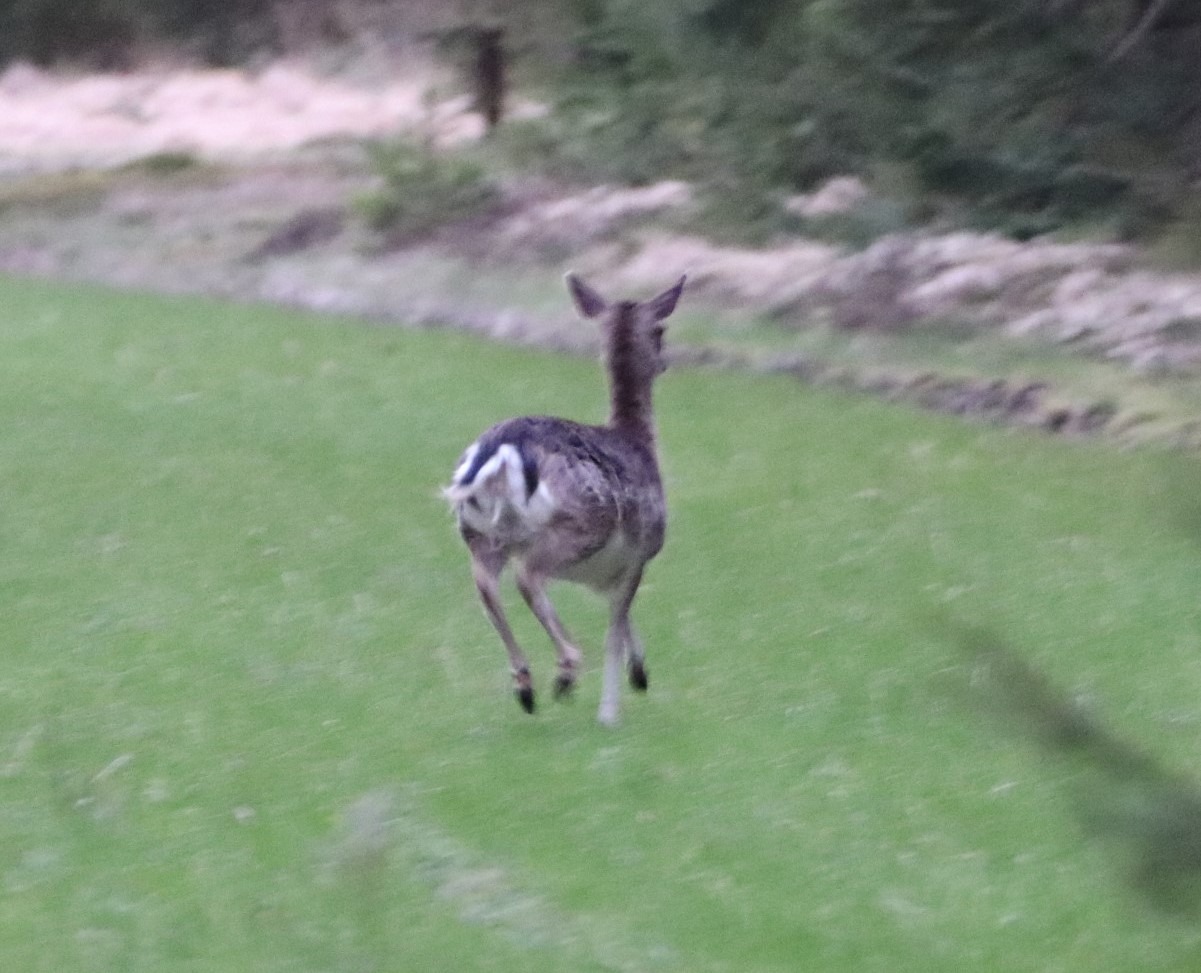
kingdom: Animalia
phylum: Chordata
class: Mammalia
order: Artiodactyla
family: Cervidae
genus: Dama
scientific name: Dama dama
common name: Dådyr
